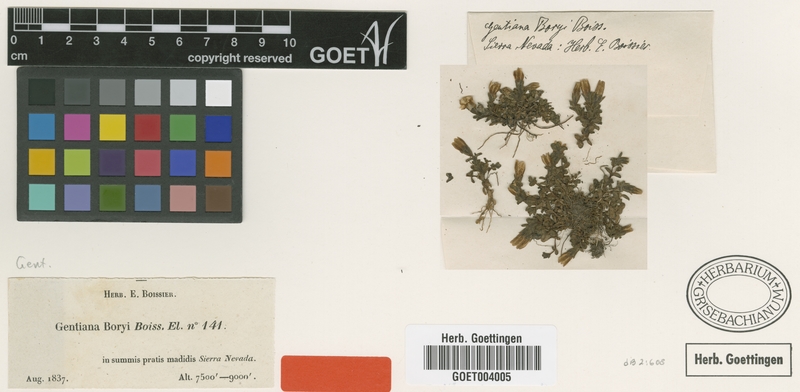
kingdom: Plantae
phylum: Tracheophyta
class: Magnoliopsida
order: Gentianales
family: Gentianaceae
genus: Gentiana
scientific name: Gentiana boryi
